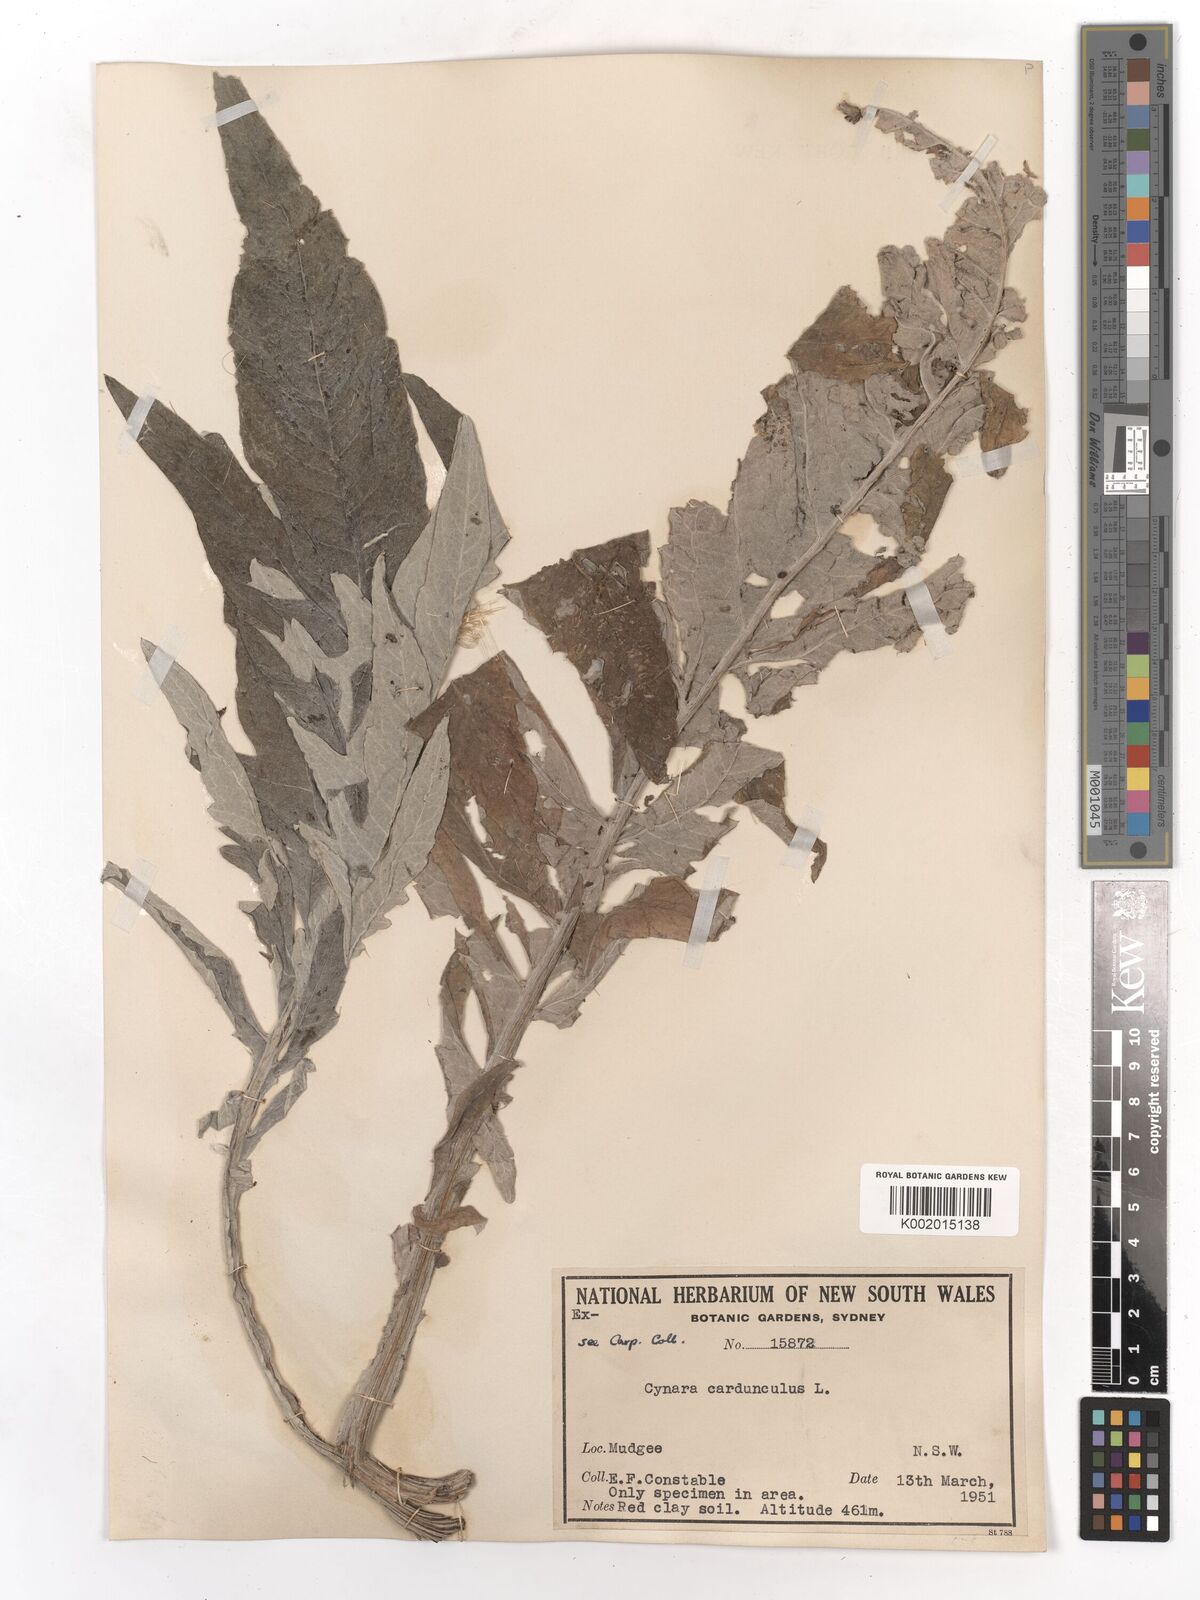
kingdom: Plantae
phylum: Tracheophyta
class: Magnoliopsida
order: Asterales
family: Asteraceae
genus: Cynara
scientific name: Cynara cardunculus
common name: Globe artichoke
